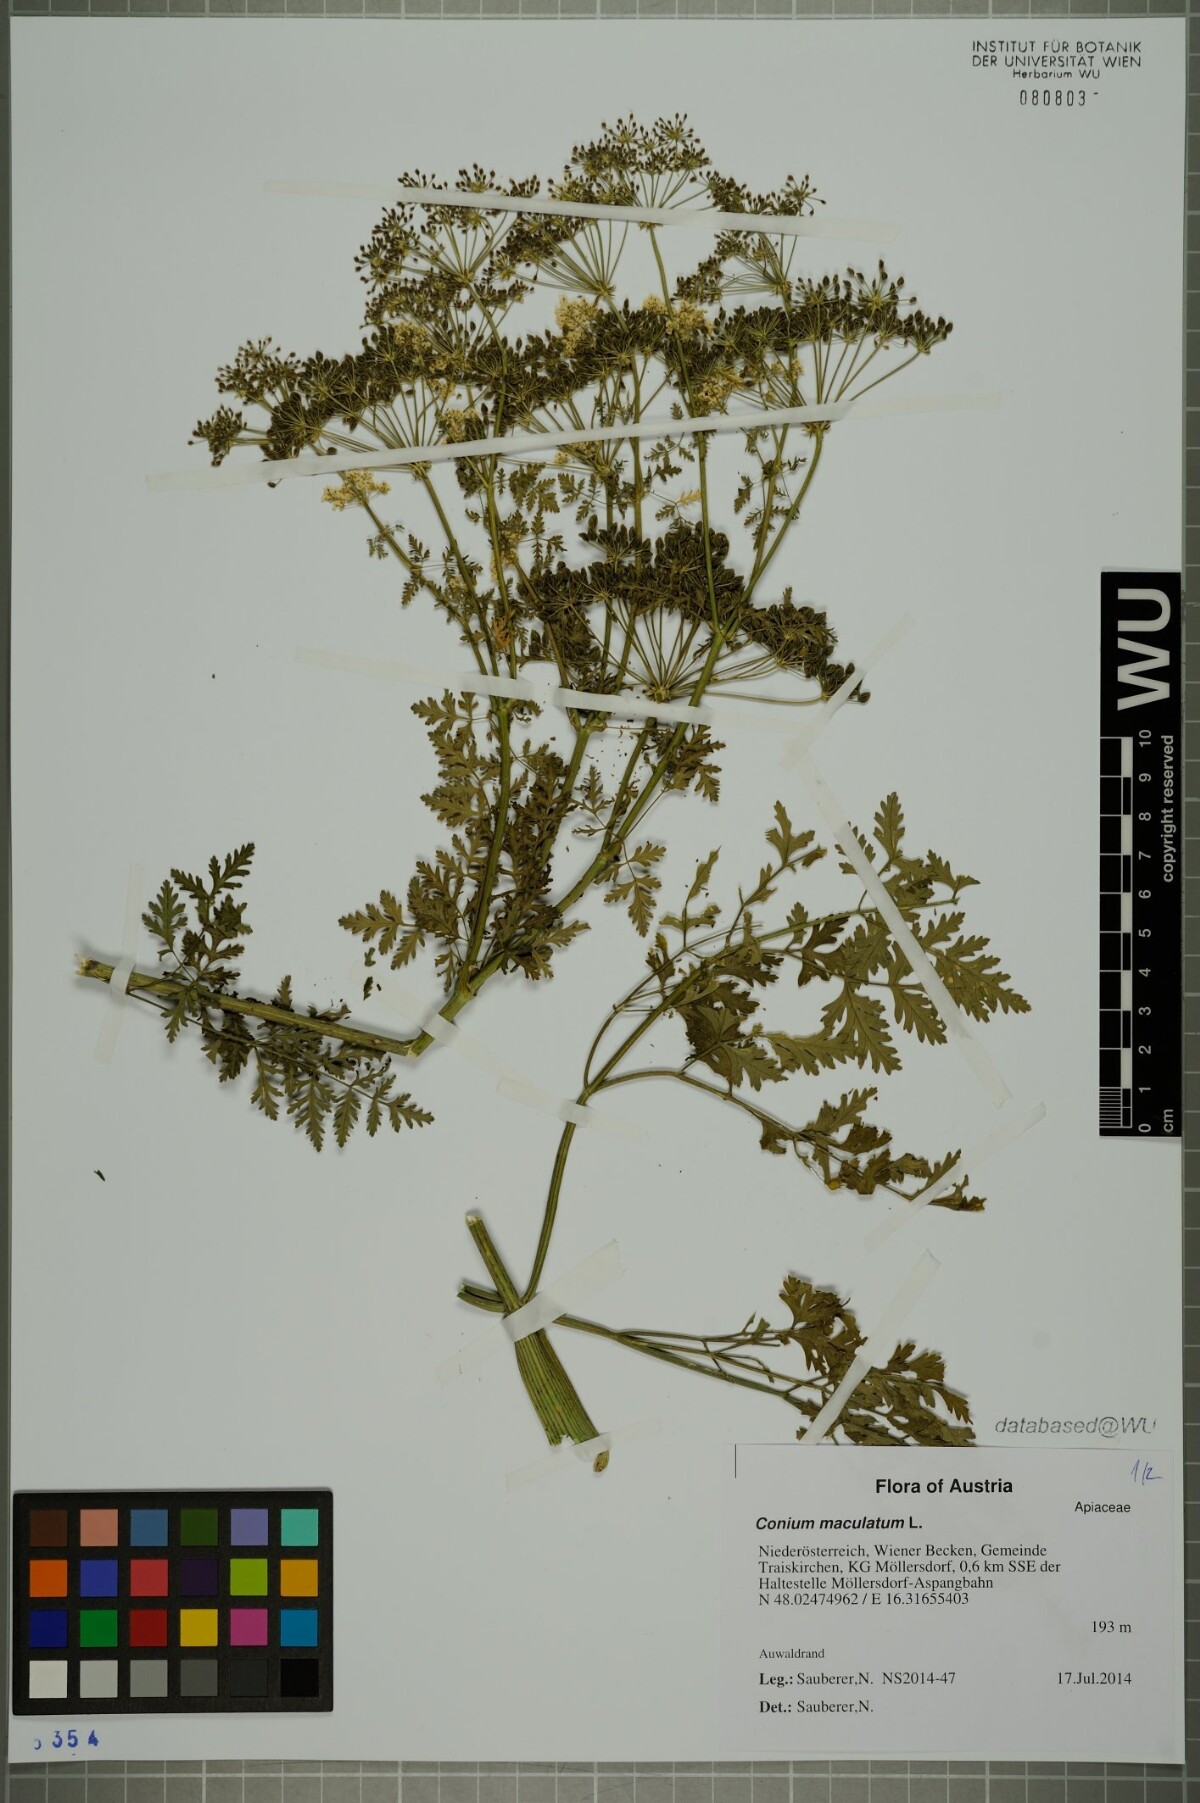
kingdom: Plantae
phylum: Tracheophyta
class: Magnoliopsida
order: Apiales
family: Apiaceae
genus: Conium
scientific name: Conium maculatum
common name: Hemlock
